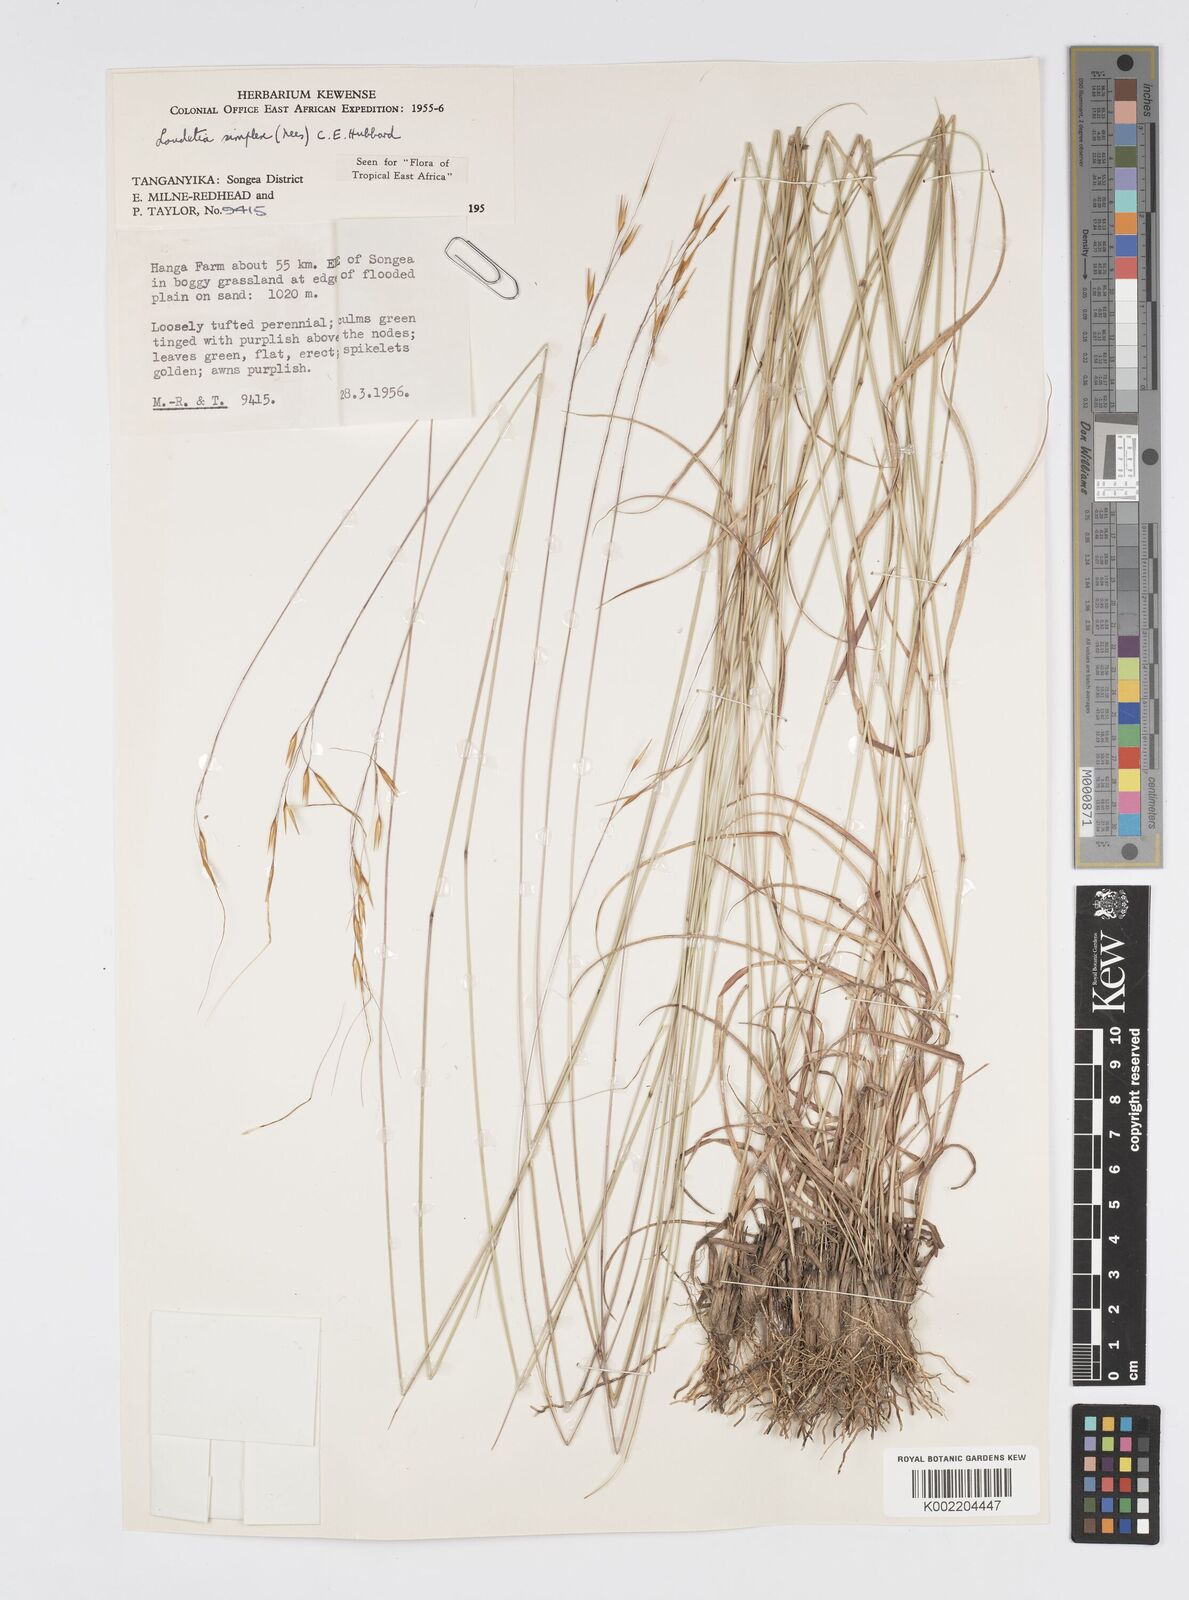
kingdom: Plantae
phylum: Tracheophyta
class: Liliopsida
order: Poales
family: Poaceae
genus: Loudetia
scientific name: Loudetia simplex
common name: Common russet grass
